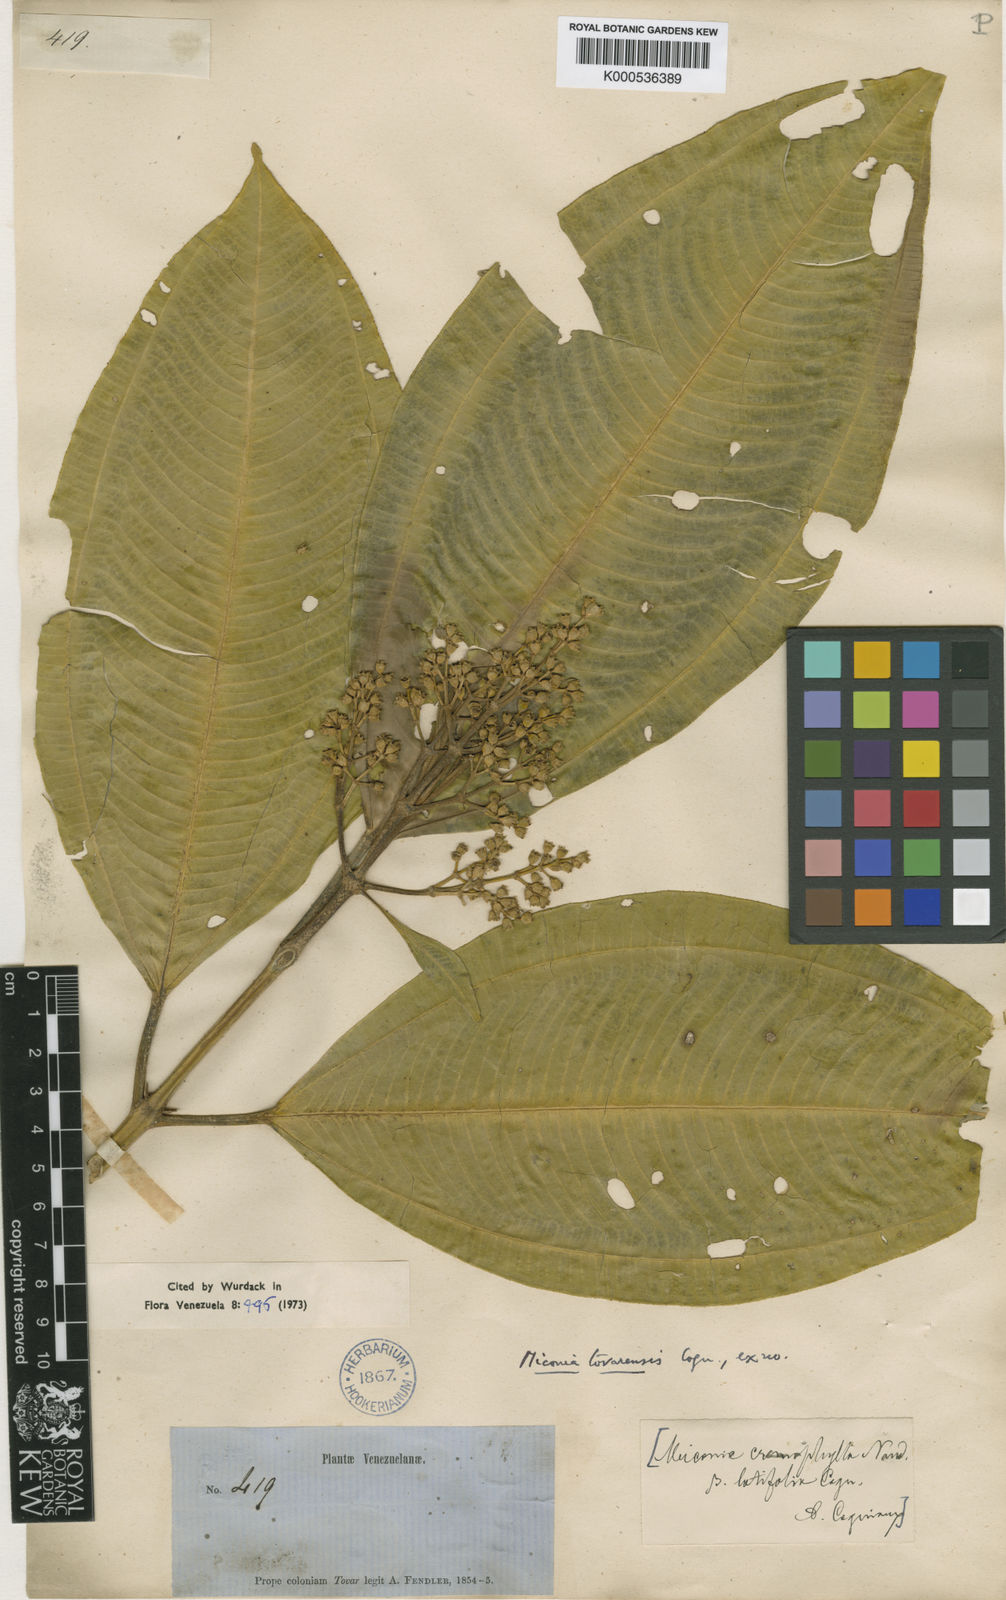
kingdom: Plantae
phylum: Tracheophyta
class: Magnoliopsida
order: Myrtales
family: Melastomataceae
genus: Miconia
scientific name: Miconia tovarensis
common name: Tovar maya
